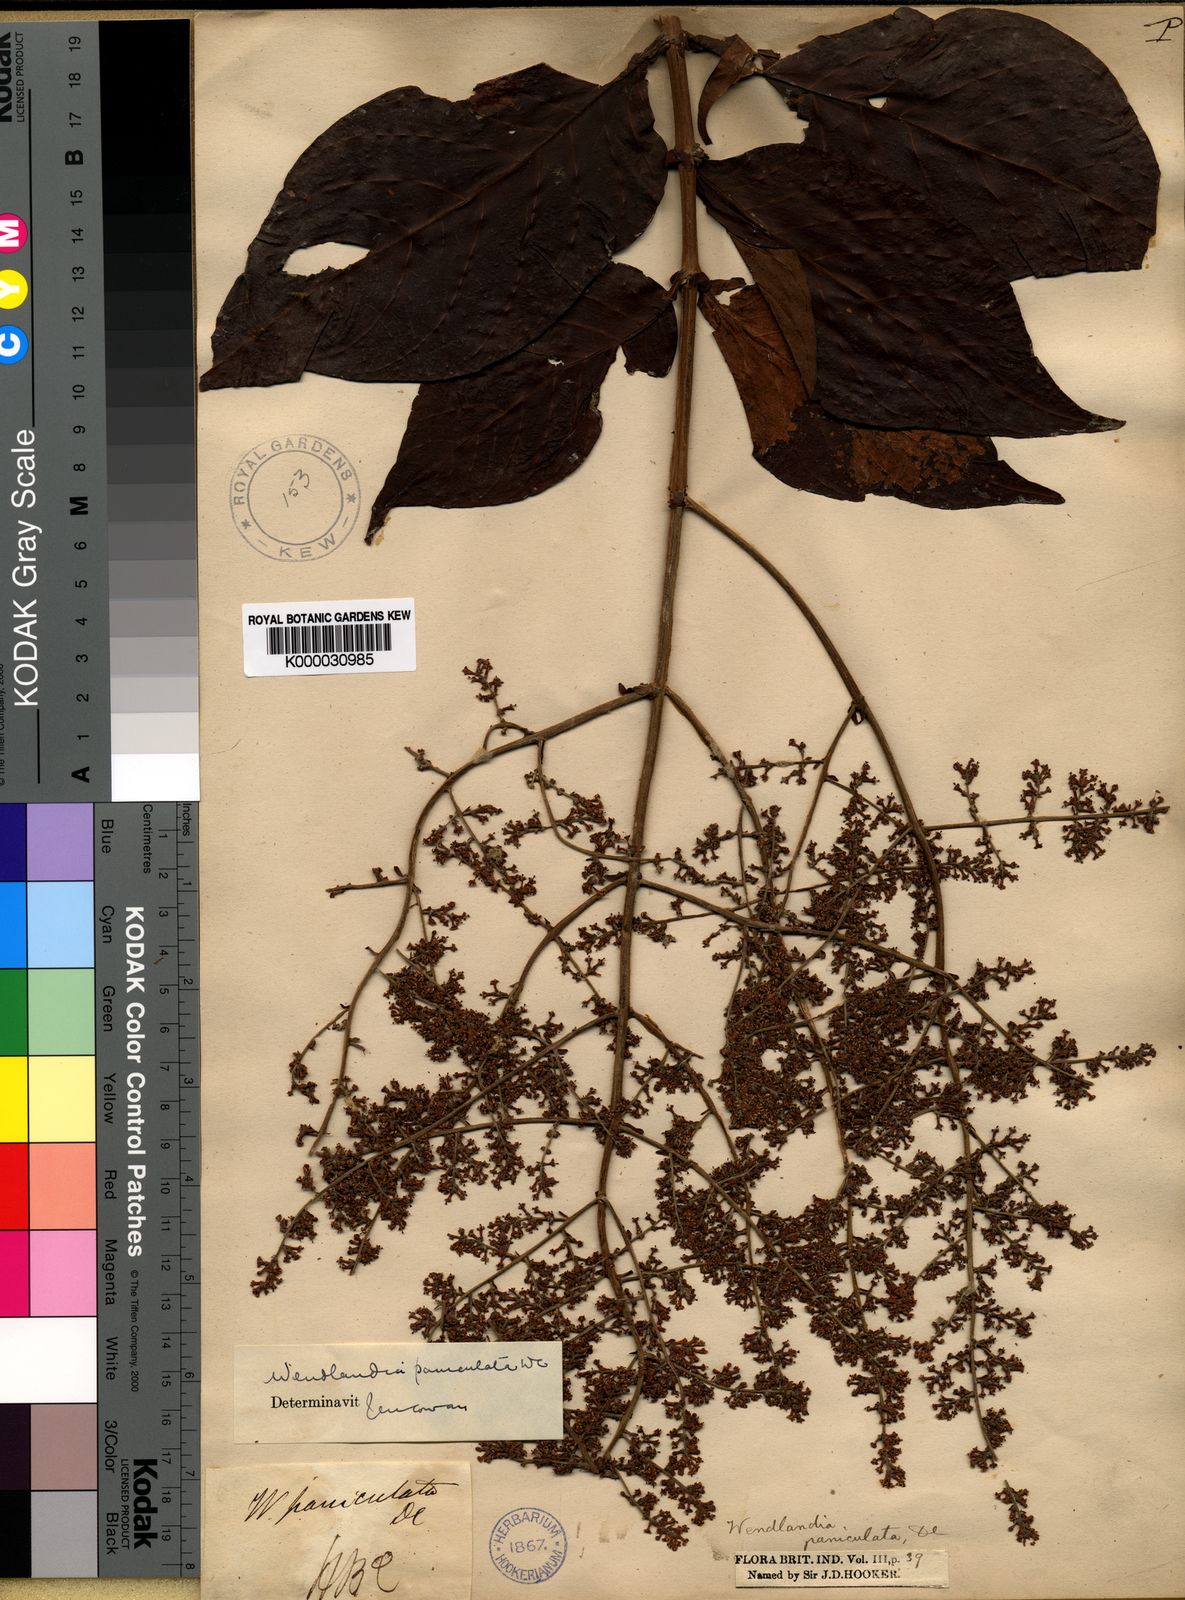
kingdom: Plantae
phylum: Tracheophyta
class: Magnoliopsida
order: Gentianales
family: Rubiaceae
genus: Wendlandia
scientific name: Wendlandia paniculata
